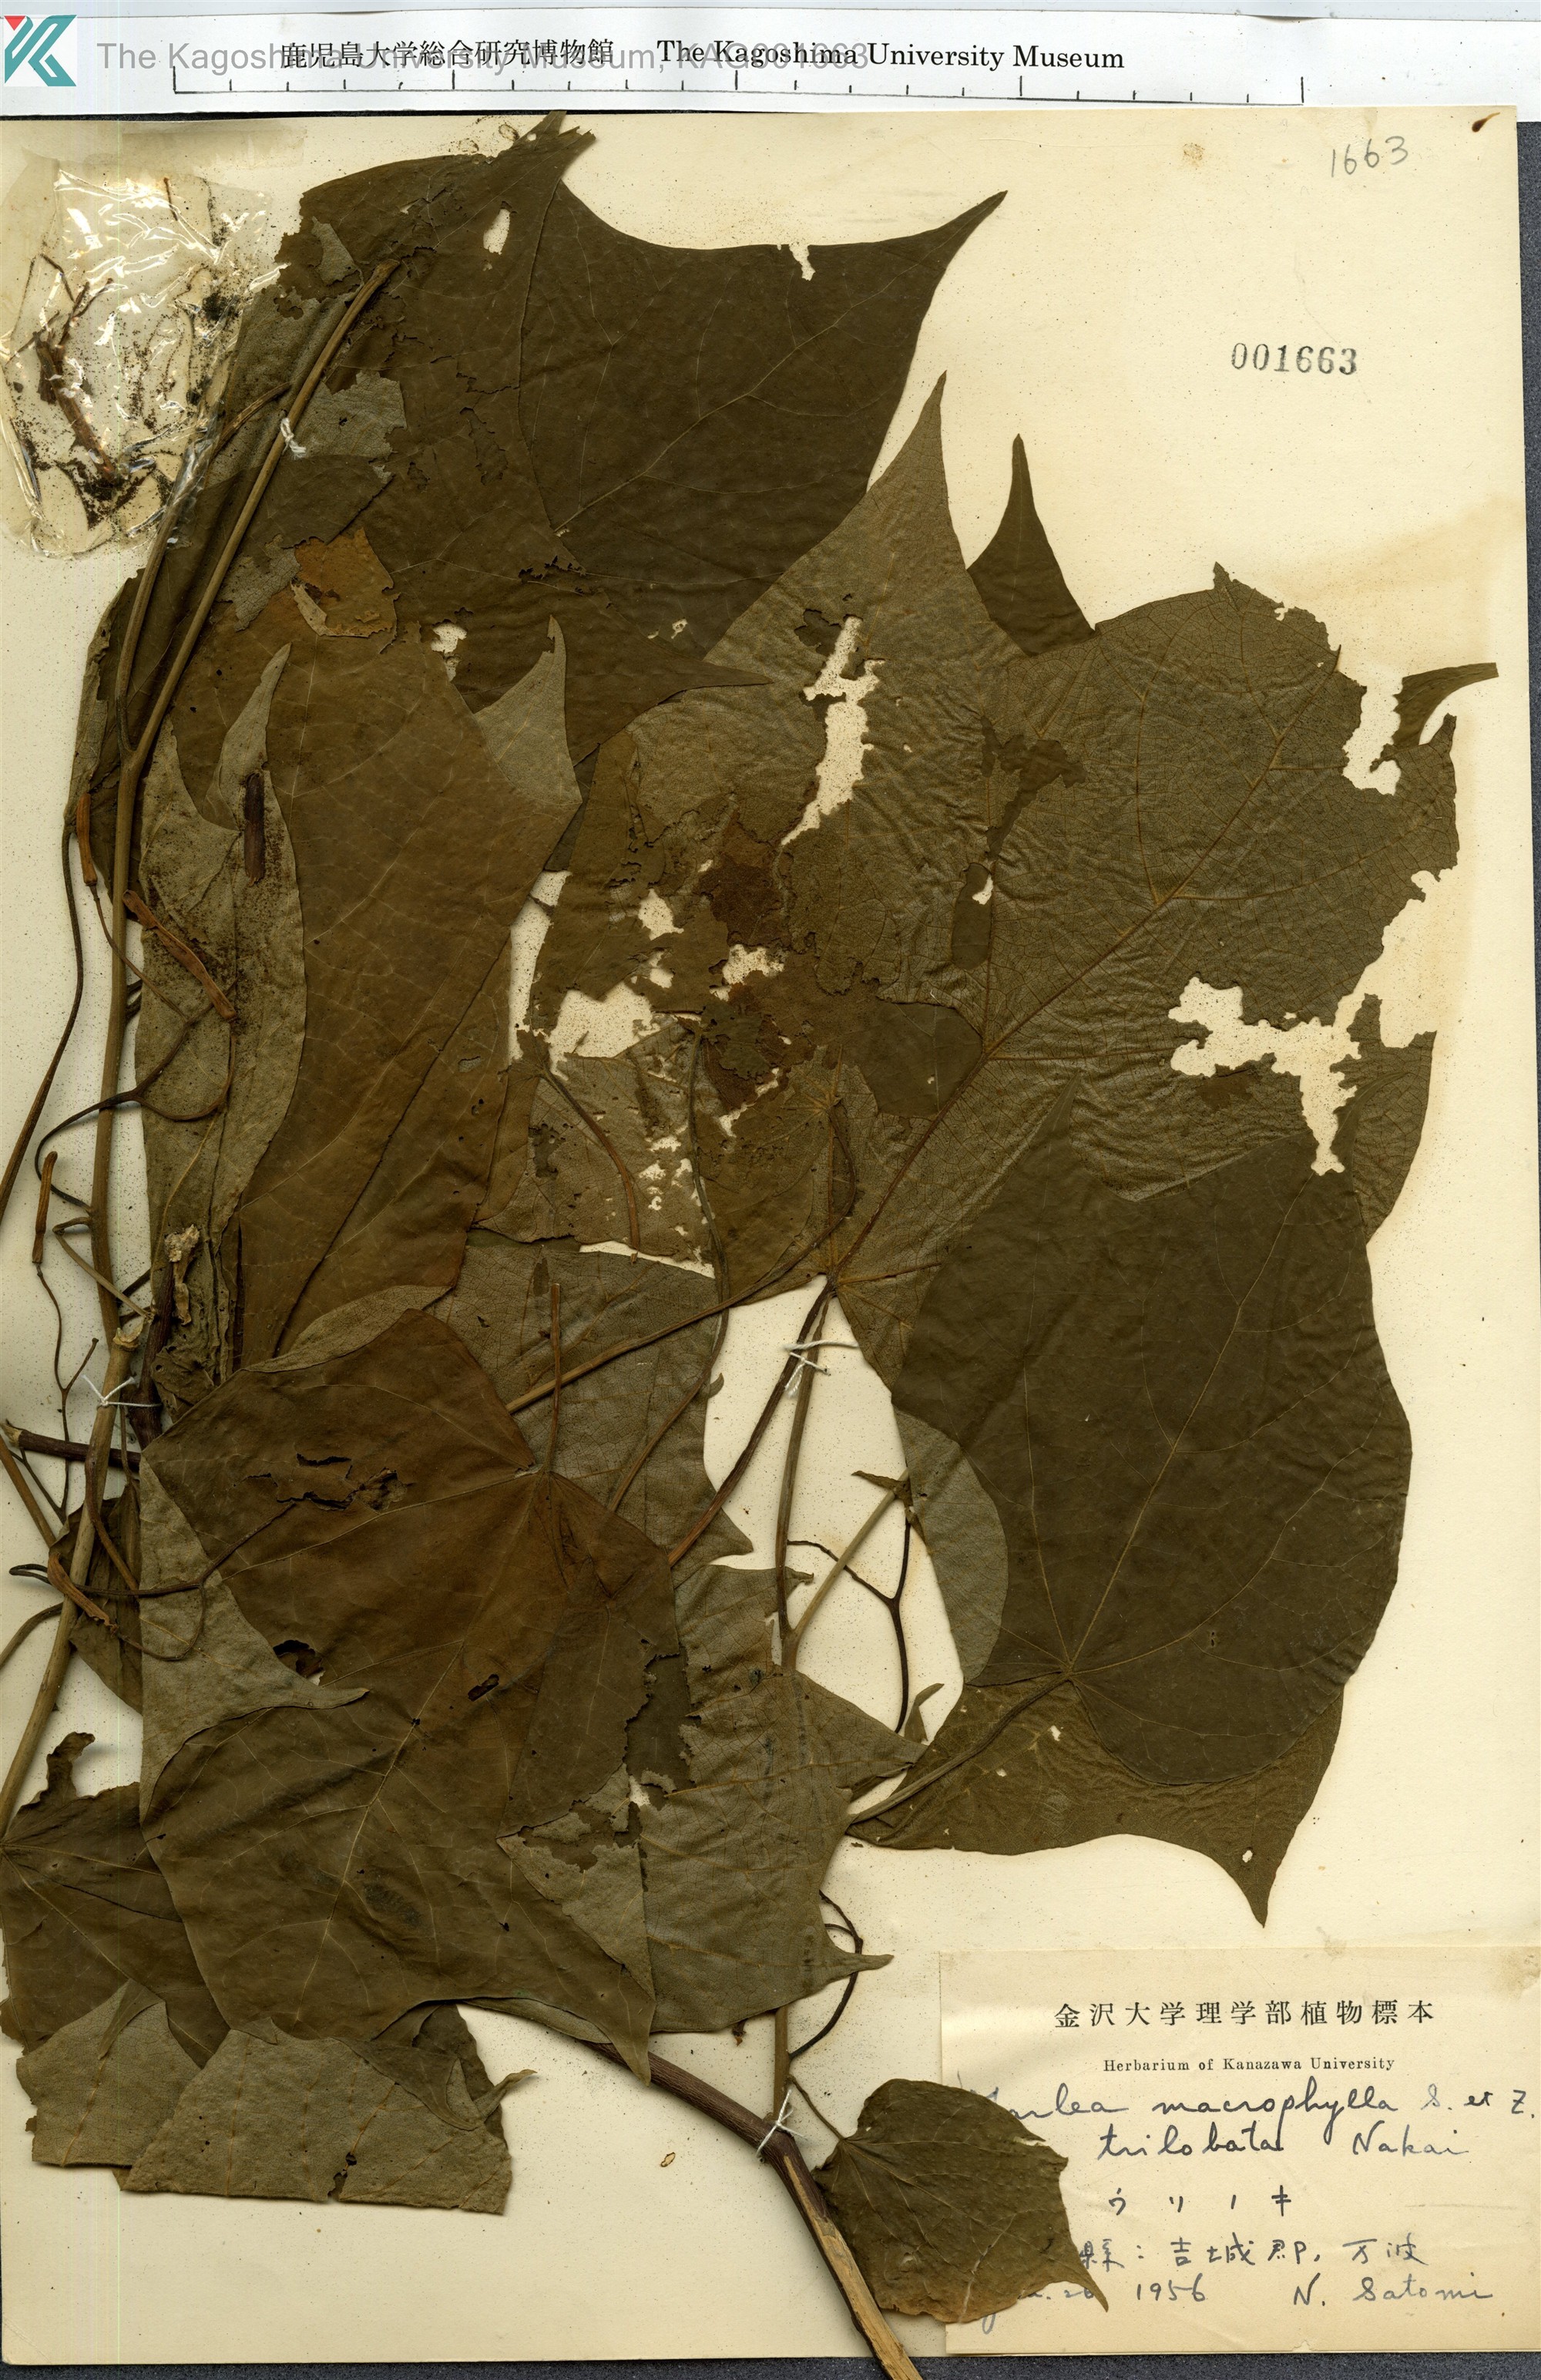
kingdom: Plantae
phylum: Tracheophyta
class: Magnoliopsida
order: Cornales
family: Cornaceae
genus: Alangium
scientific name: Alangium platanifolium
